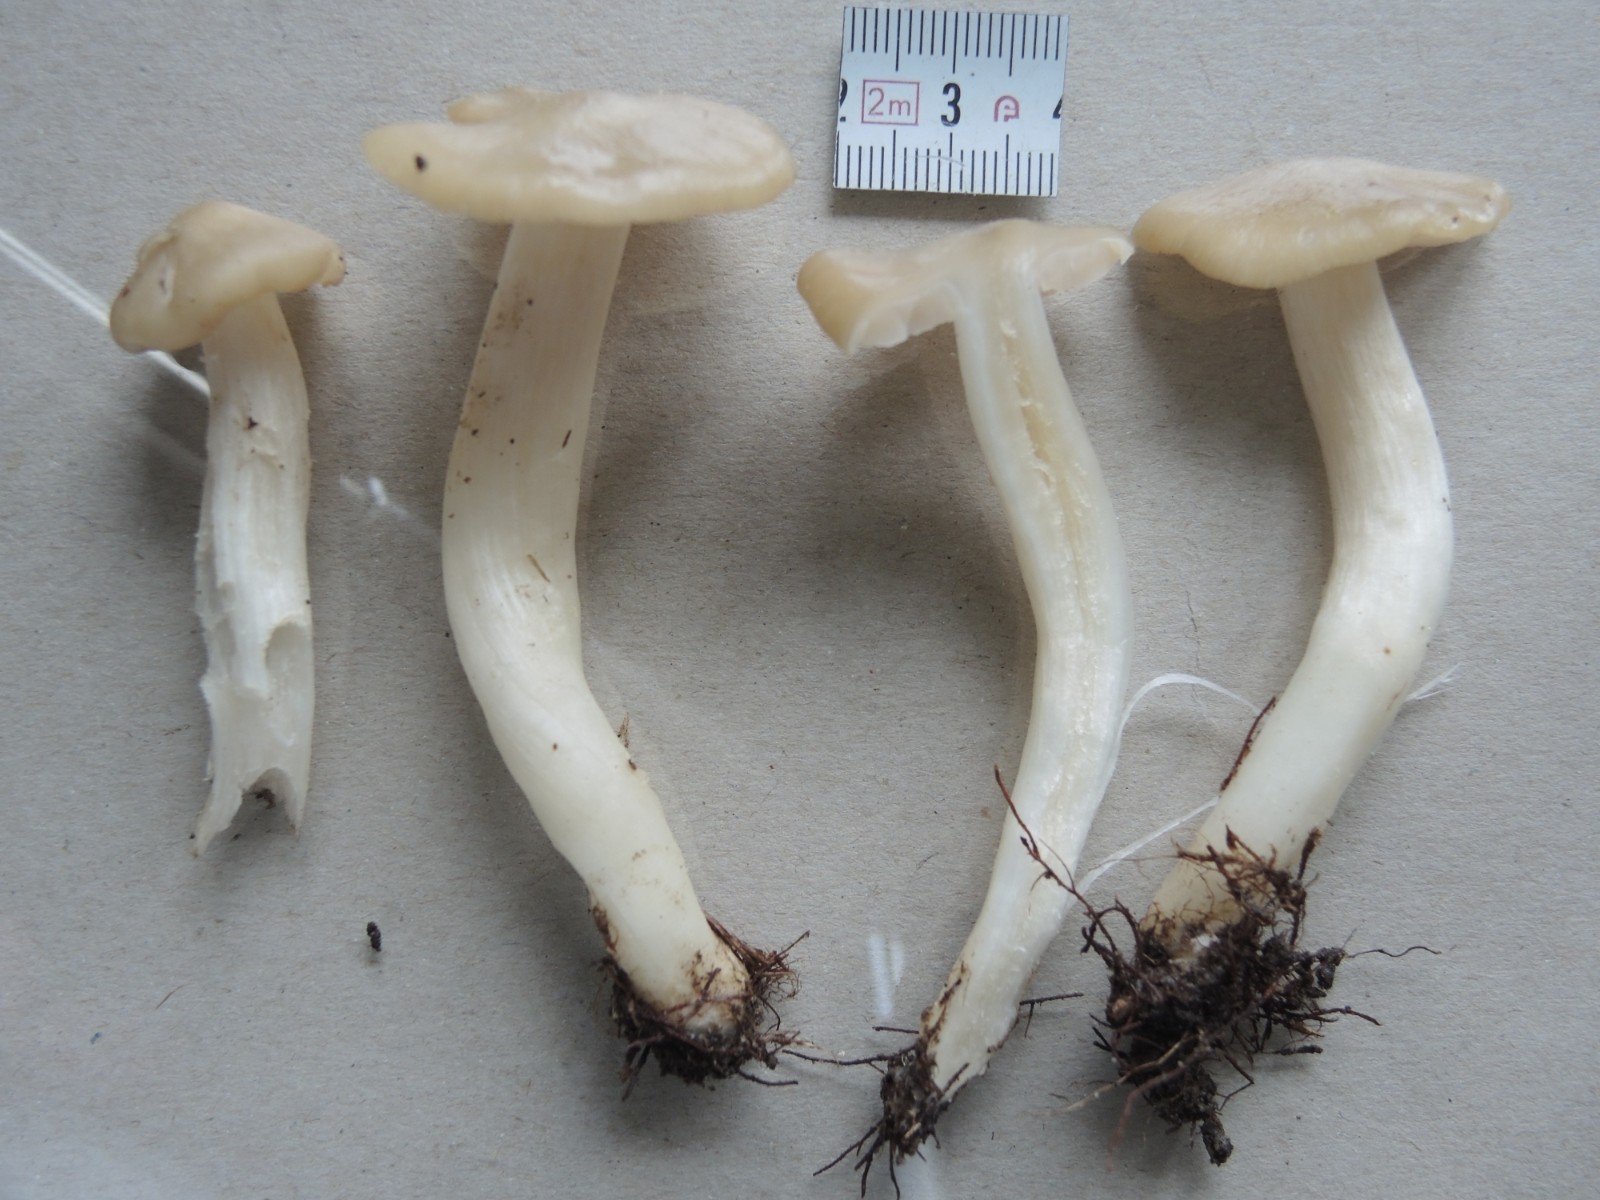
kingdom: Fungi
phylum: Basidiomycota
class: Agaricomycetes
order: Agaricales
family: Entolomataceae
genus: Entoloma
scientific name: Entoloma clypeatum
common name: flammet rødblad
